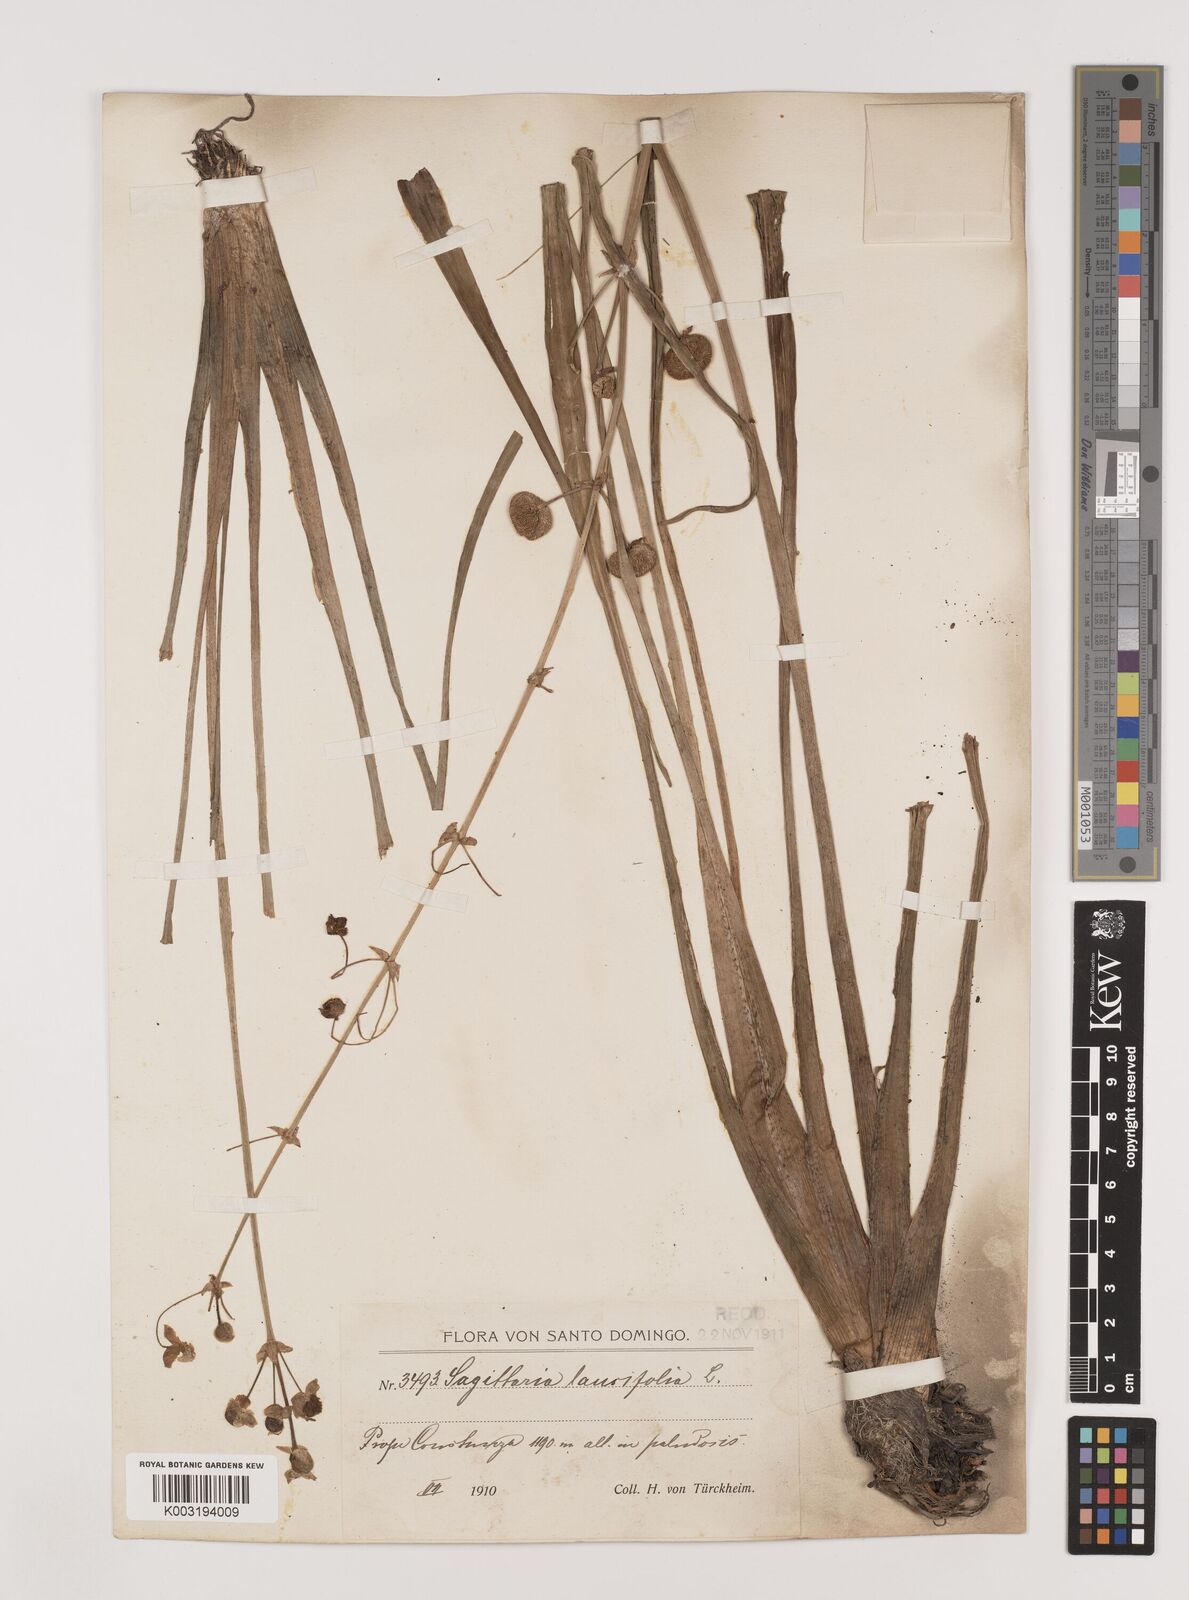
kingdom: Plantae
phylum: Tracheophyta
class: Liliopsida
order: Alismatales
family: Alismataceae
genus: Sagittaria
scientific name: Sagittaria lancifolia
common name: Lance-leaf arrowhead
